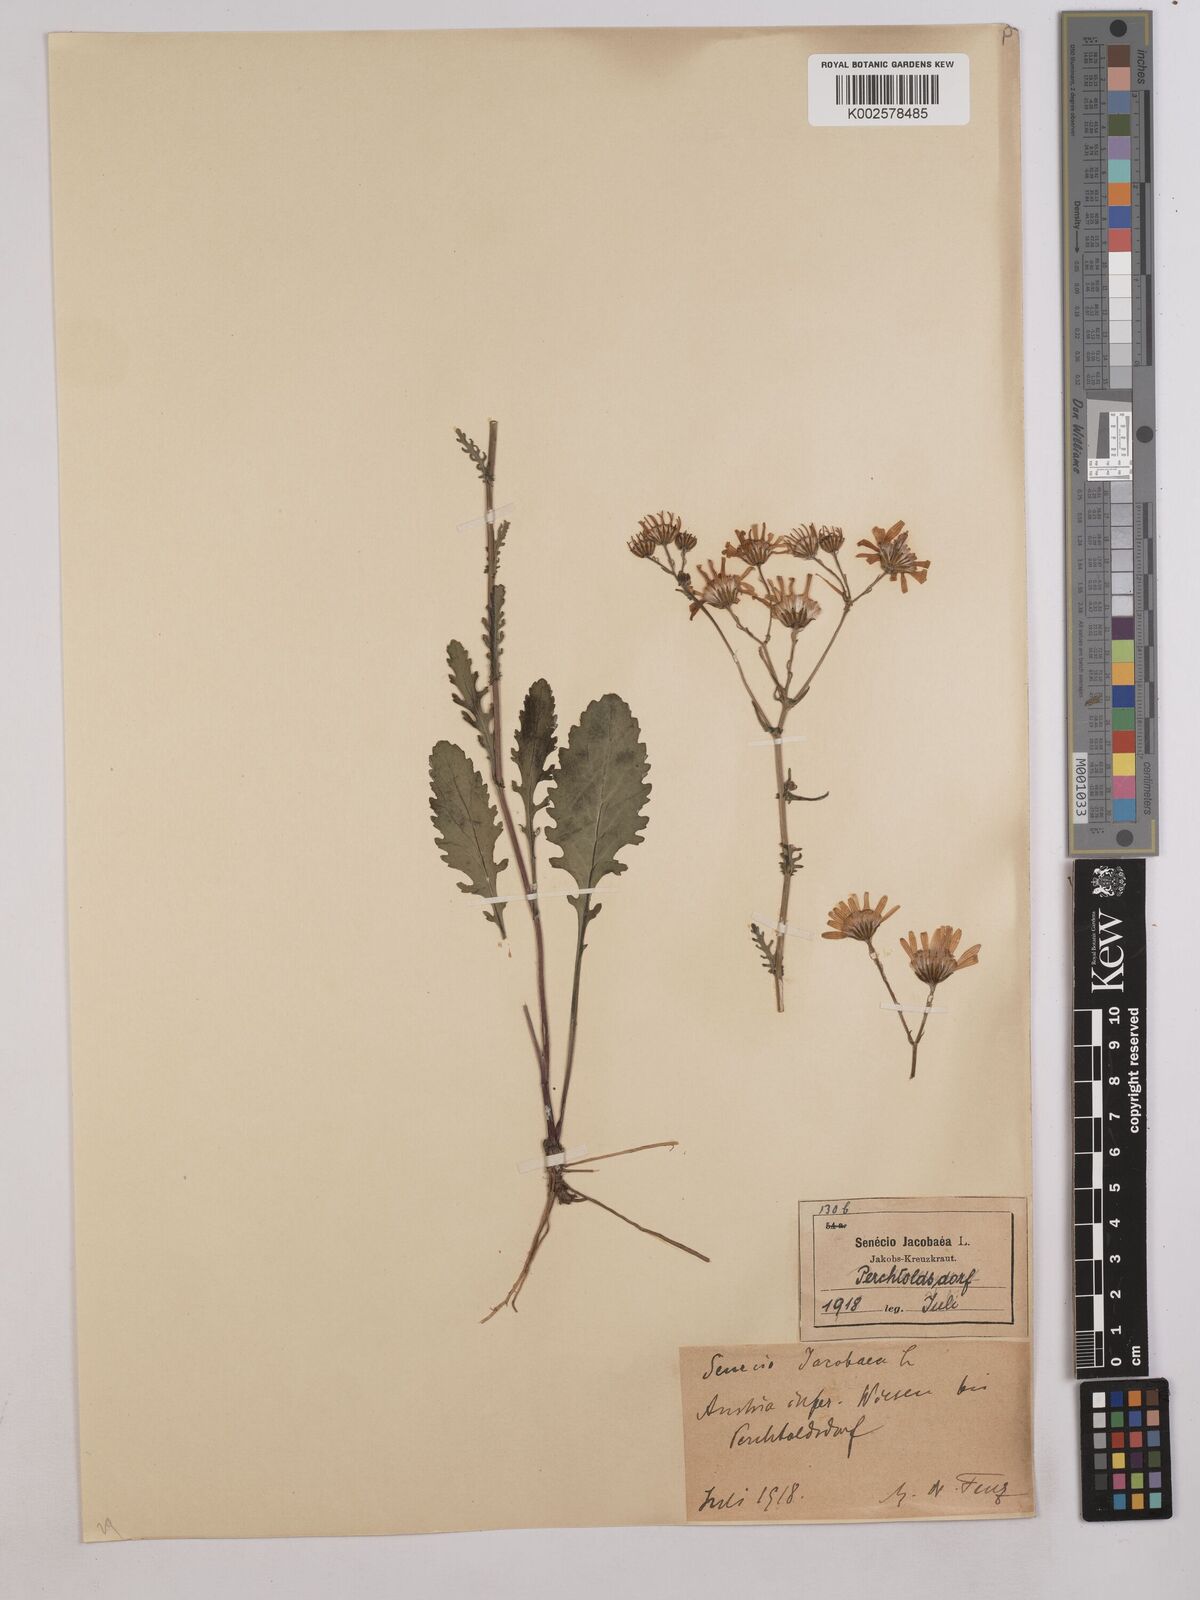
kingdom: Plantae
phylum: Tracheophyta
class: Magnoliopsida
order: Asterales
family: Asteraceae
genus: Jacobaea
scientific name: Jacobaea vulgaris
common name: Stinking willie
